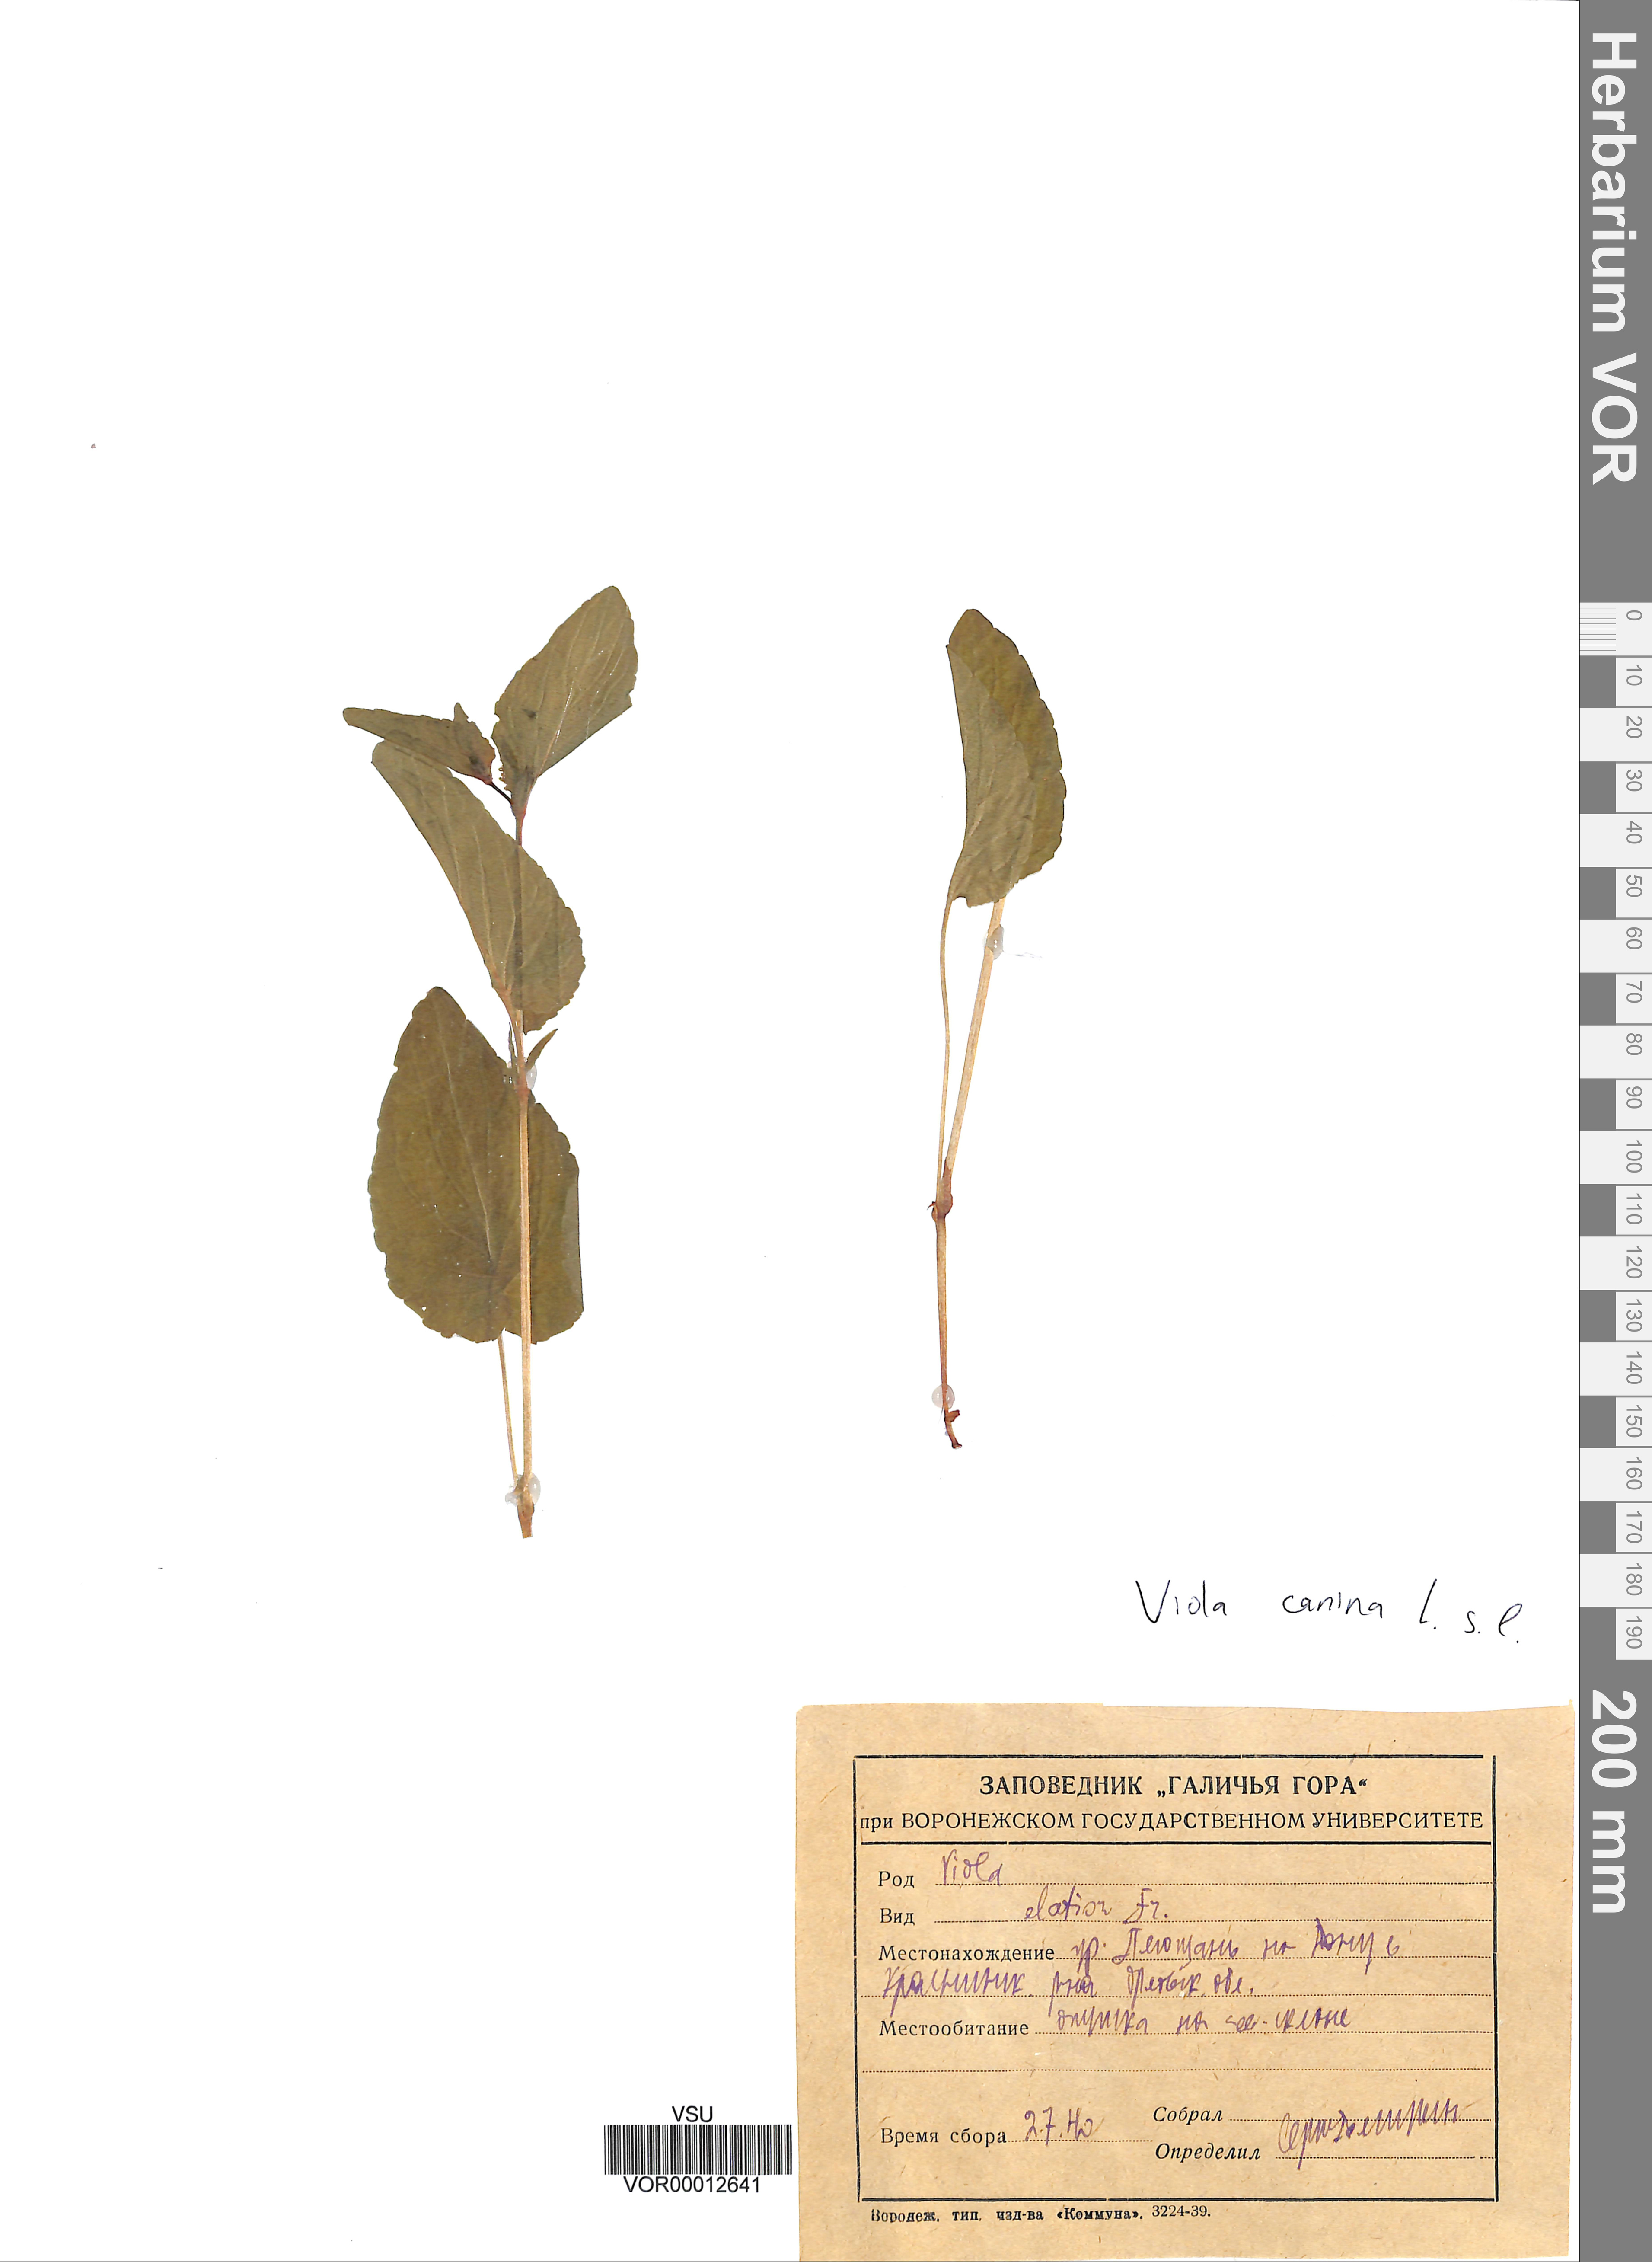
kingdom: Plantae
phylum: Tracheophyta
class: Magnoliopsida
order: Malpighiales
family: Violaceae
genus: Viola
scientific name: Viola canina
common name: Heath dog-violet
